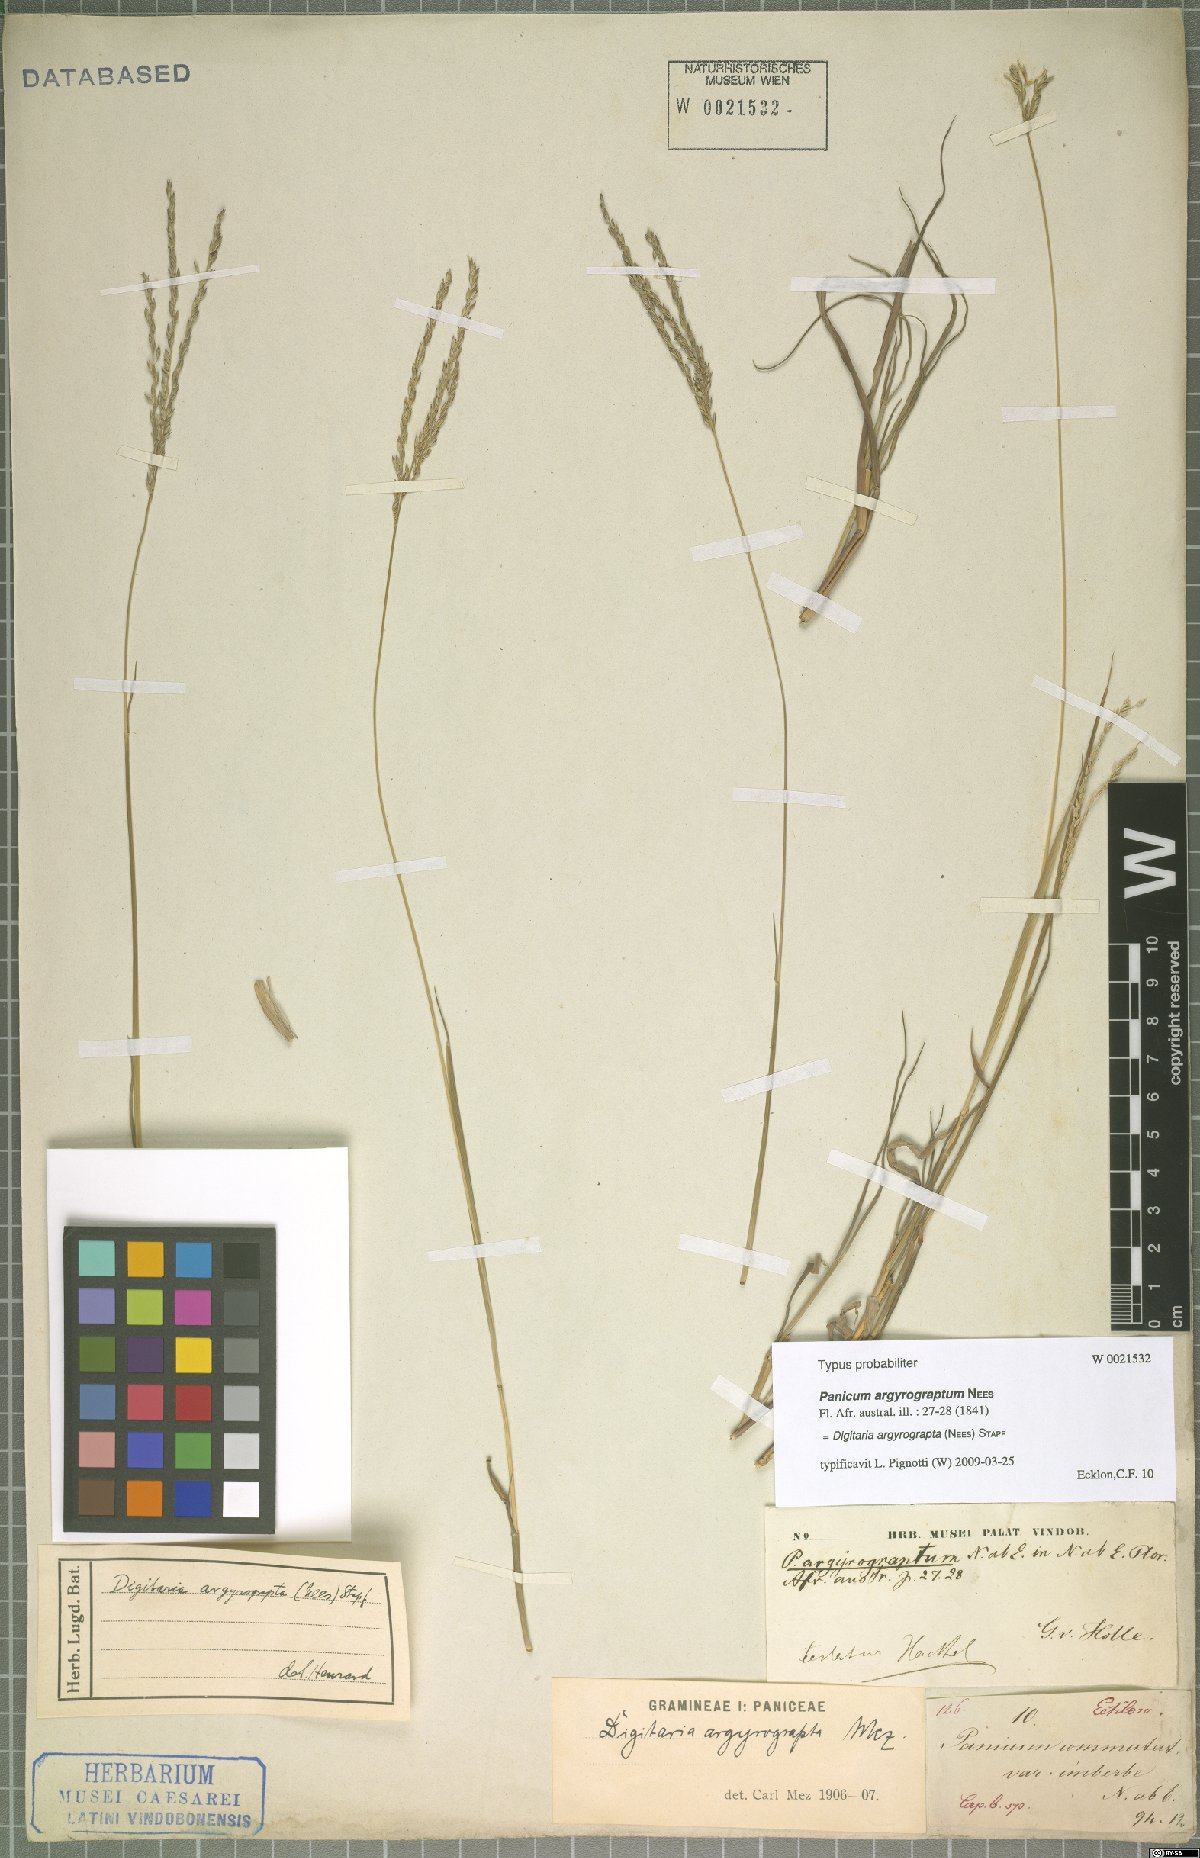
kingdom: Plantae
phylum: Tracheophyta
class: Liliopsida
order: Poales
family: Poaceae
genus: Digitaria
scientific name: Digitaria argyrograpta
